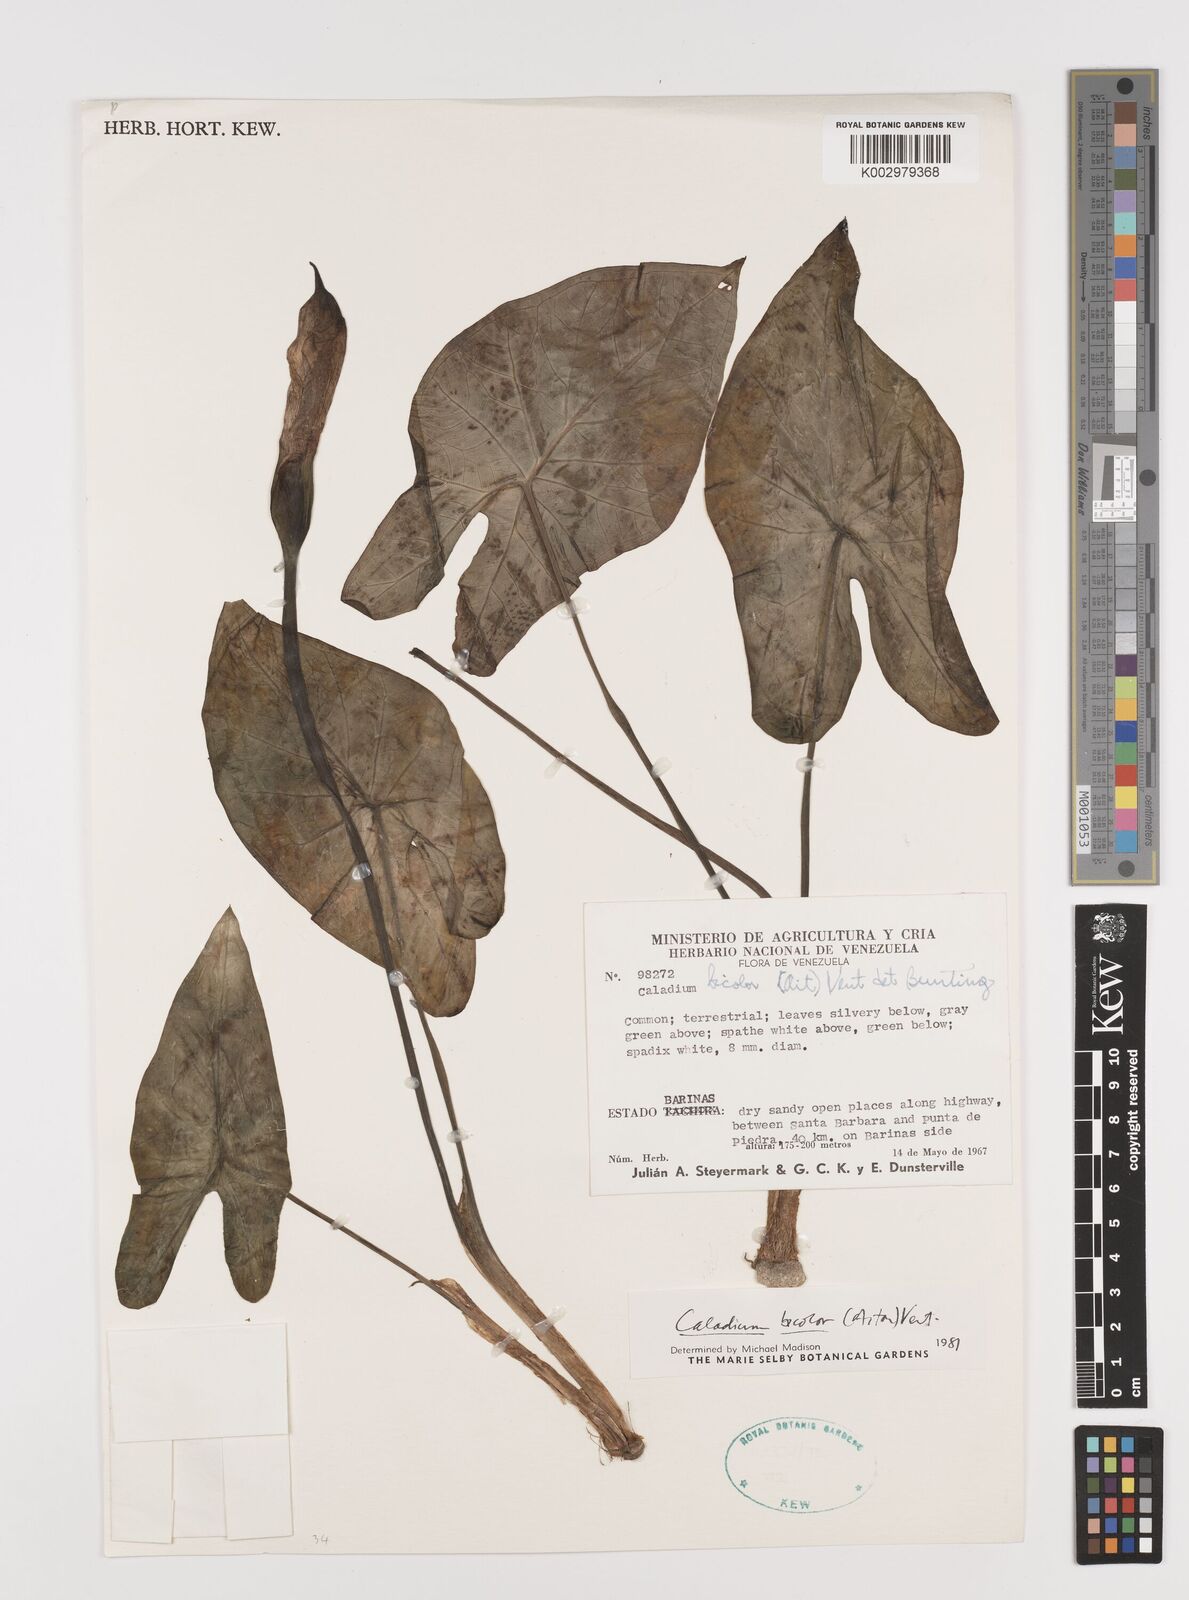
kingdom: Plantae
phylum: Tracheophyta
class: Liliopsida
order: Alismatales
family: Araceae
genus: Caladium
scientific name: Caladium bicolor
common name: Artist's pallet
